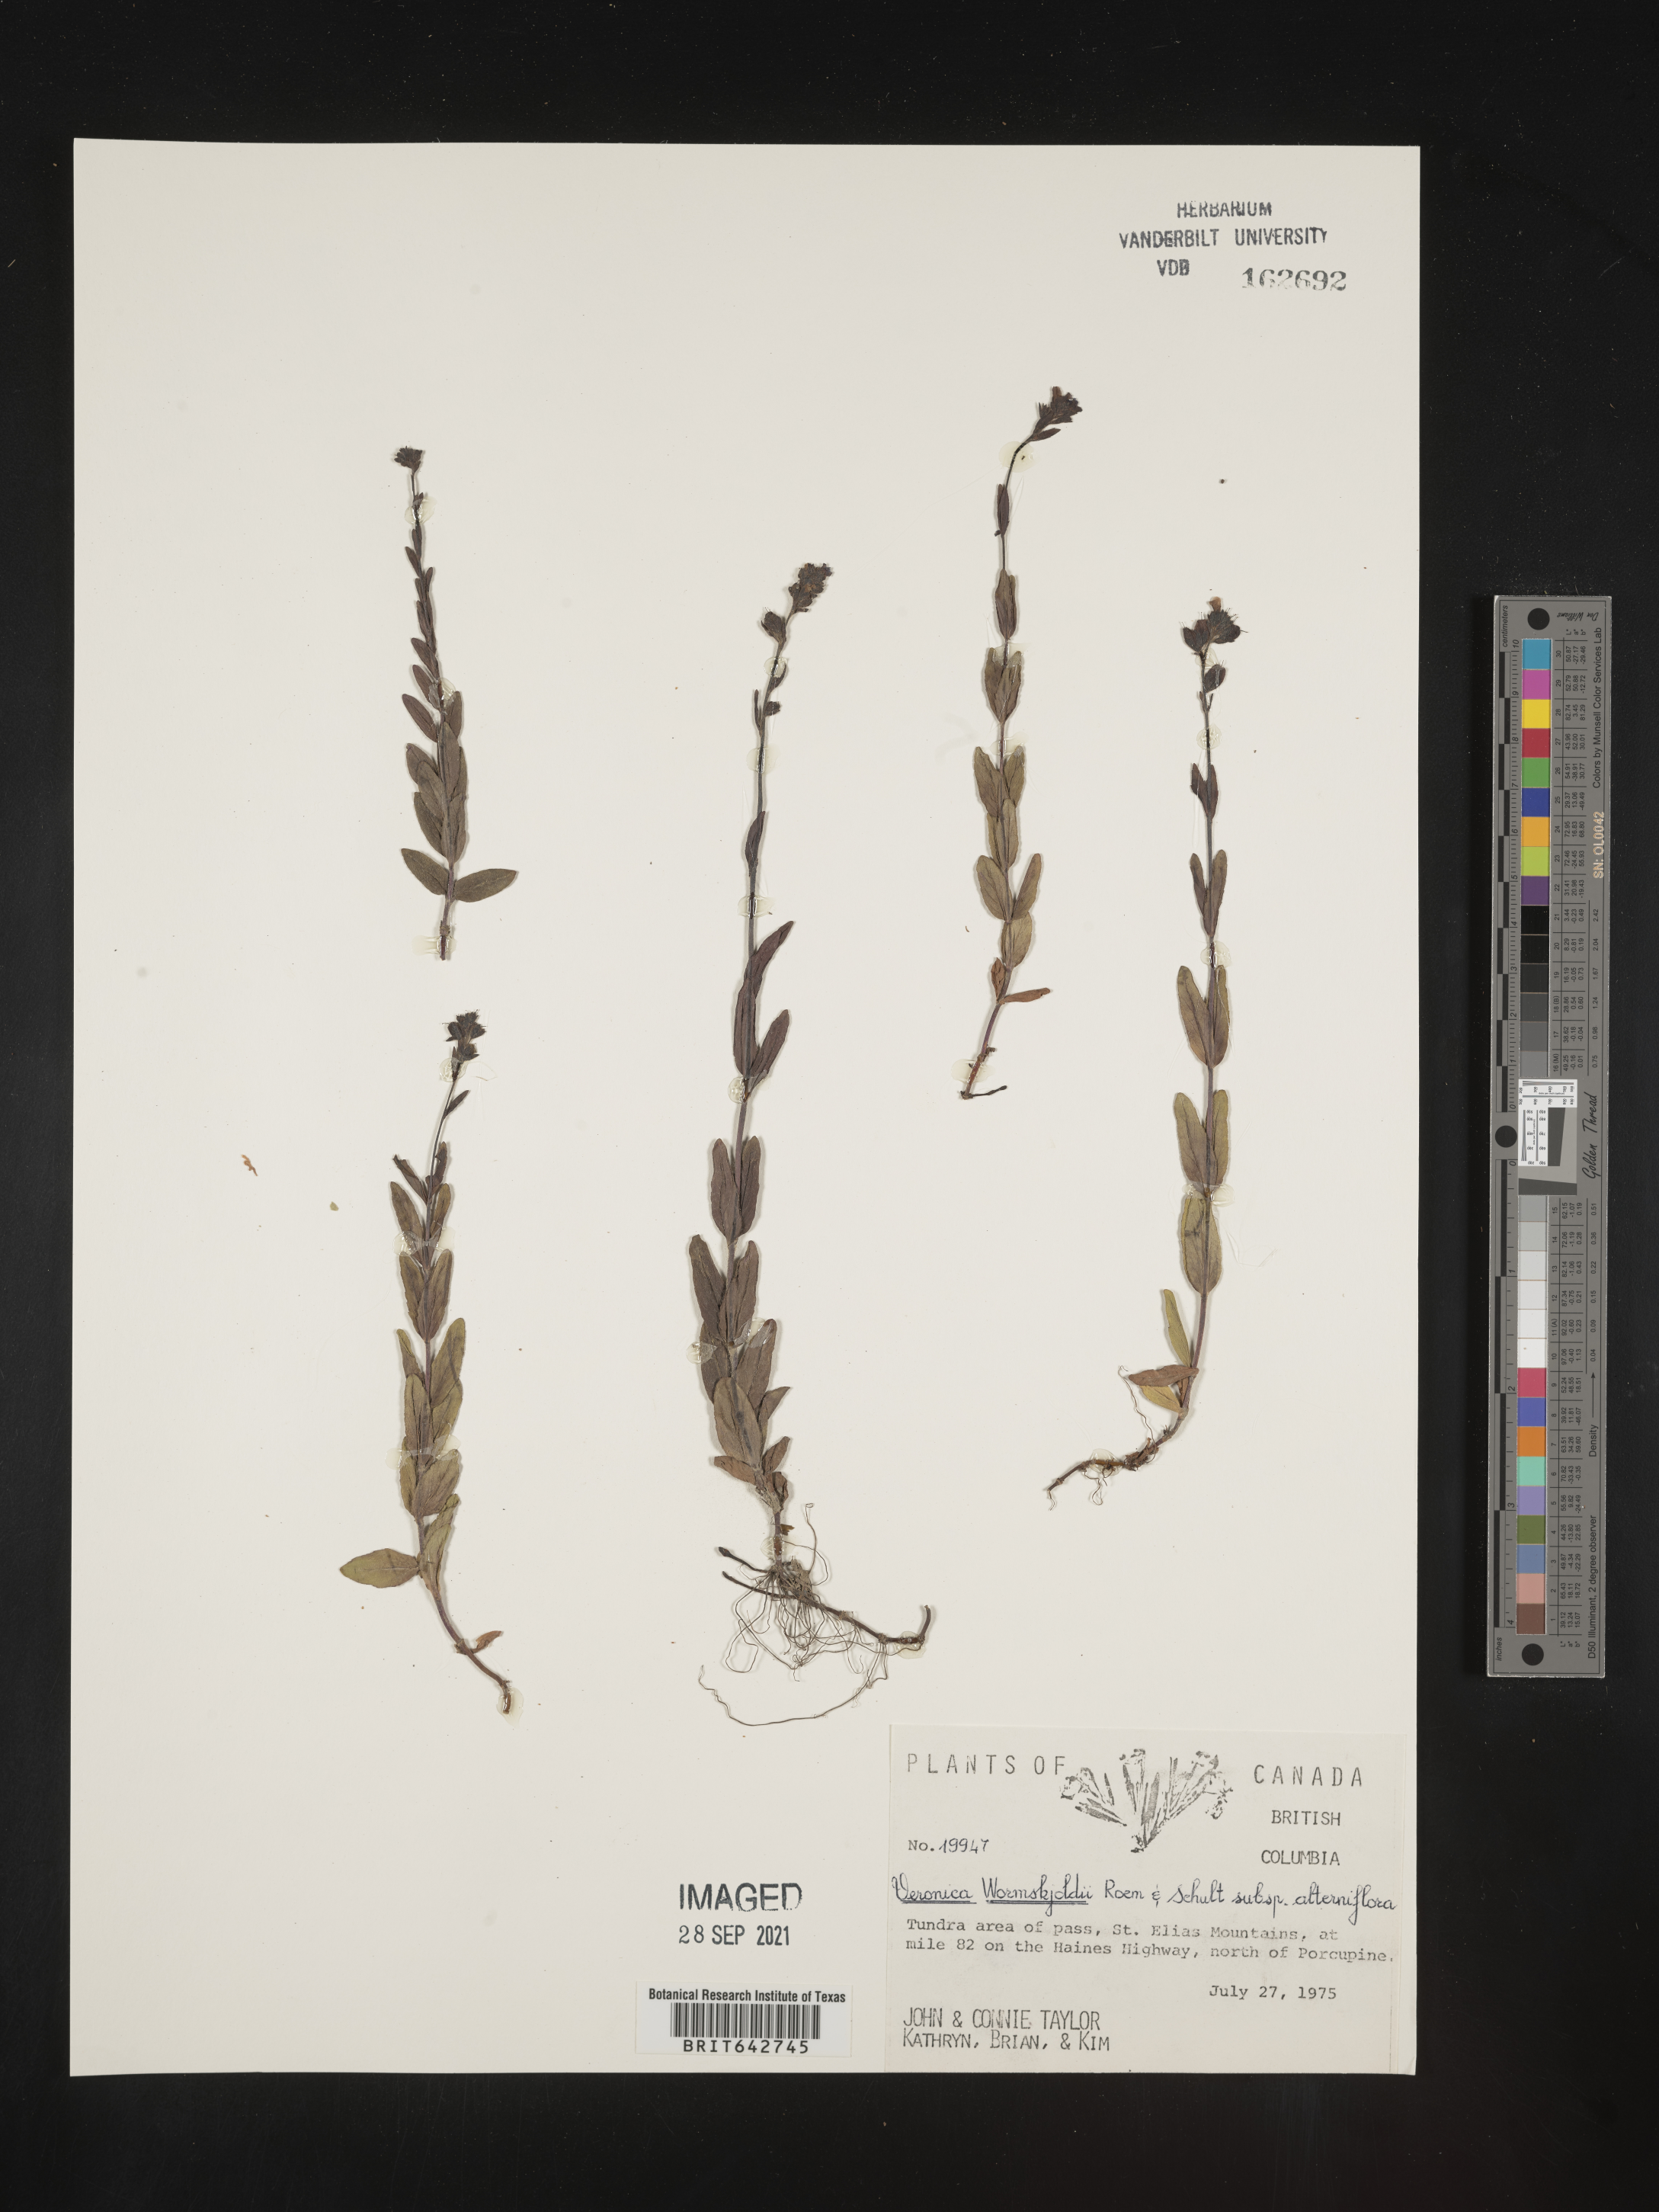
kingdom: Plantae
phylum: Tracheophyta
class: Magnoliopsida
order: Lamiales
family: Plantaginaceae
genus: Veronica
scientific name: Veronica
